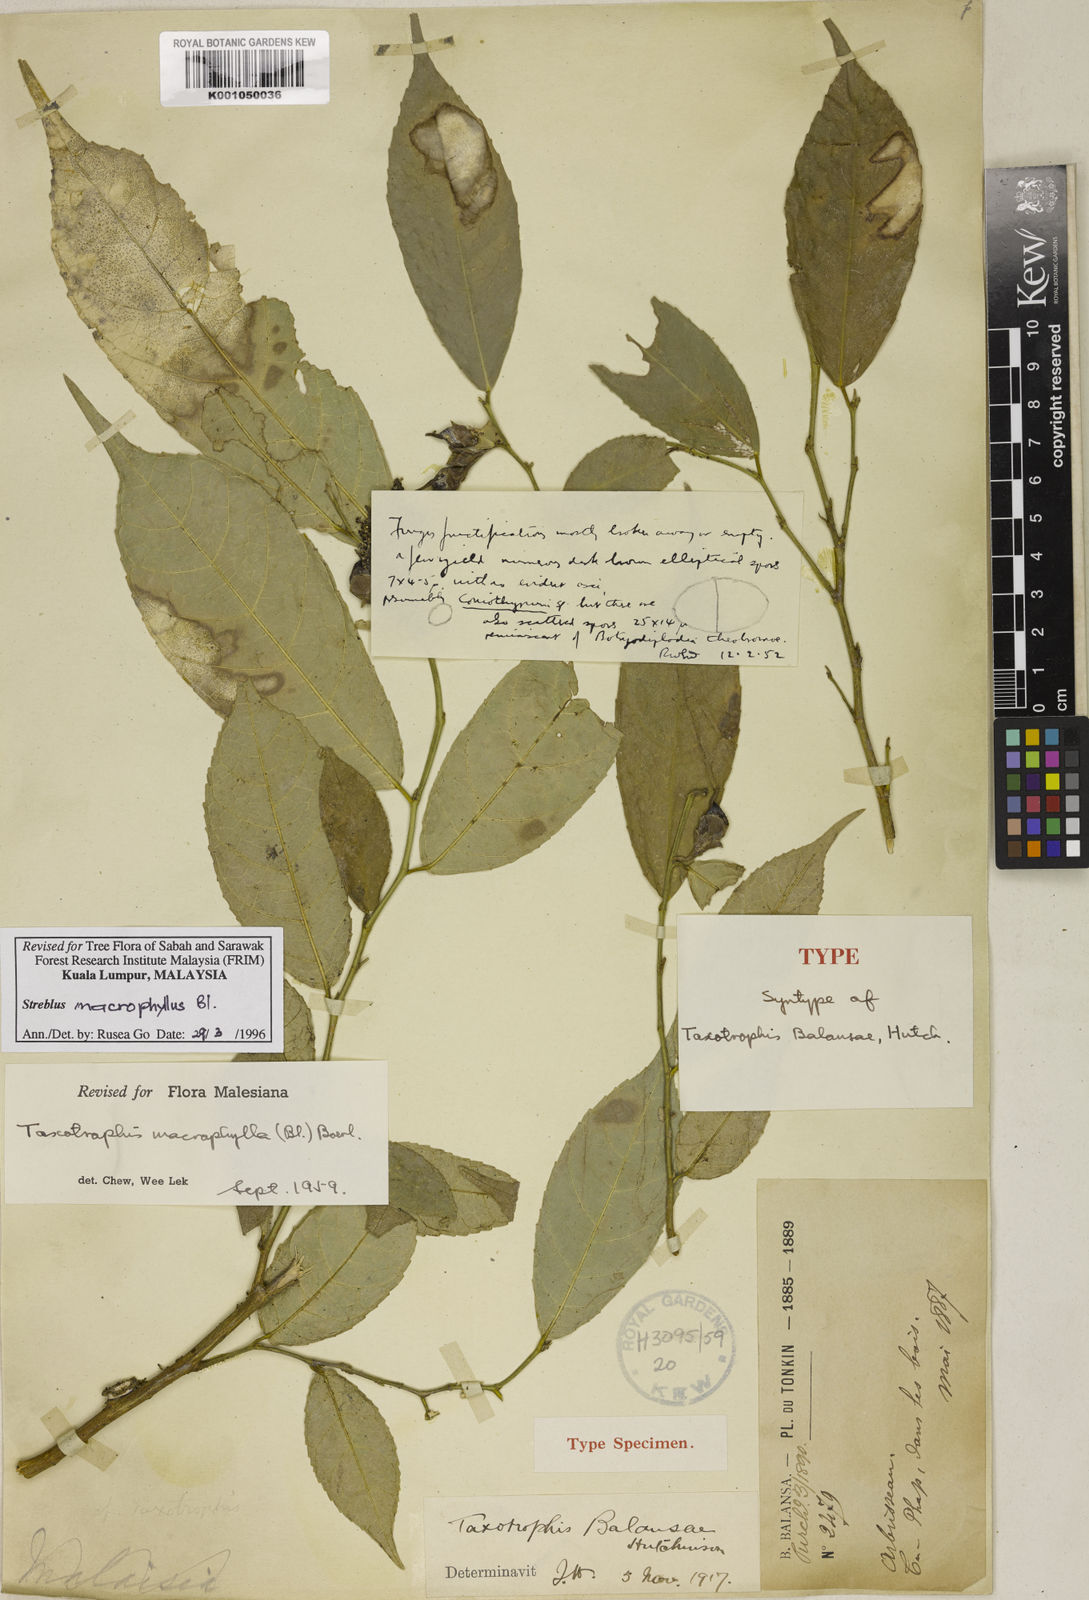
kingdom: Plantae
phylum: Tracheophyta
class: Magnoliopsida
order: Rosales
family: Moraceae
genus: Taxotrophis
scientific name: Taxotrophis macrophylla
